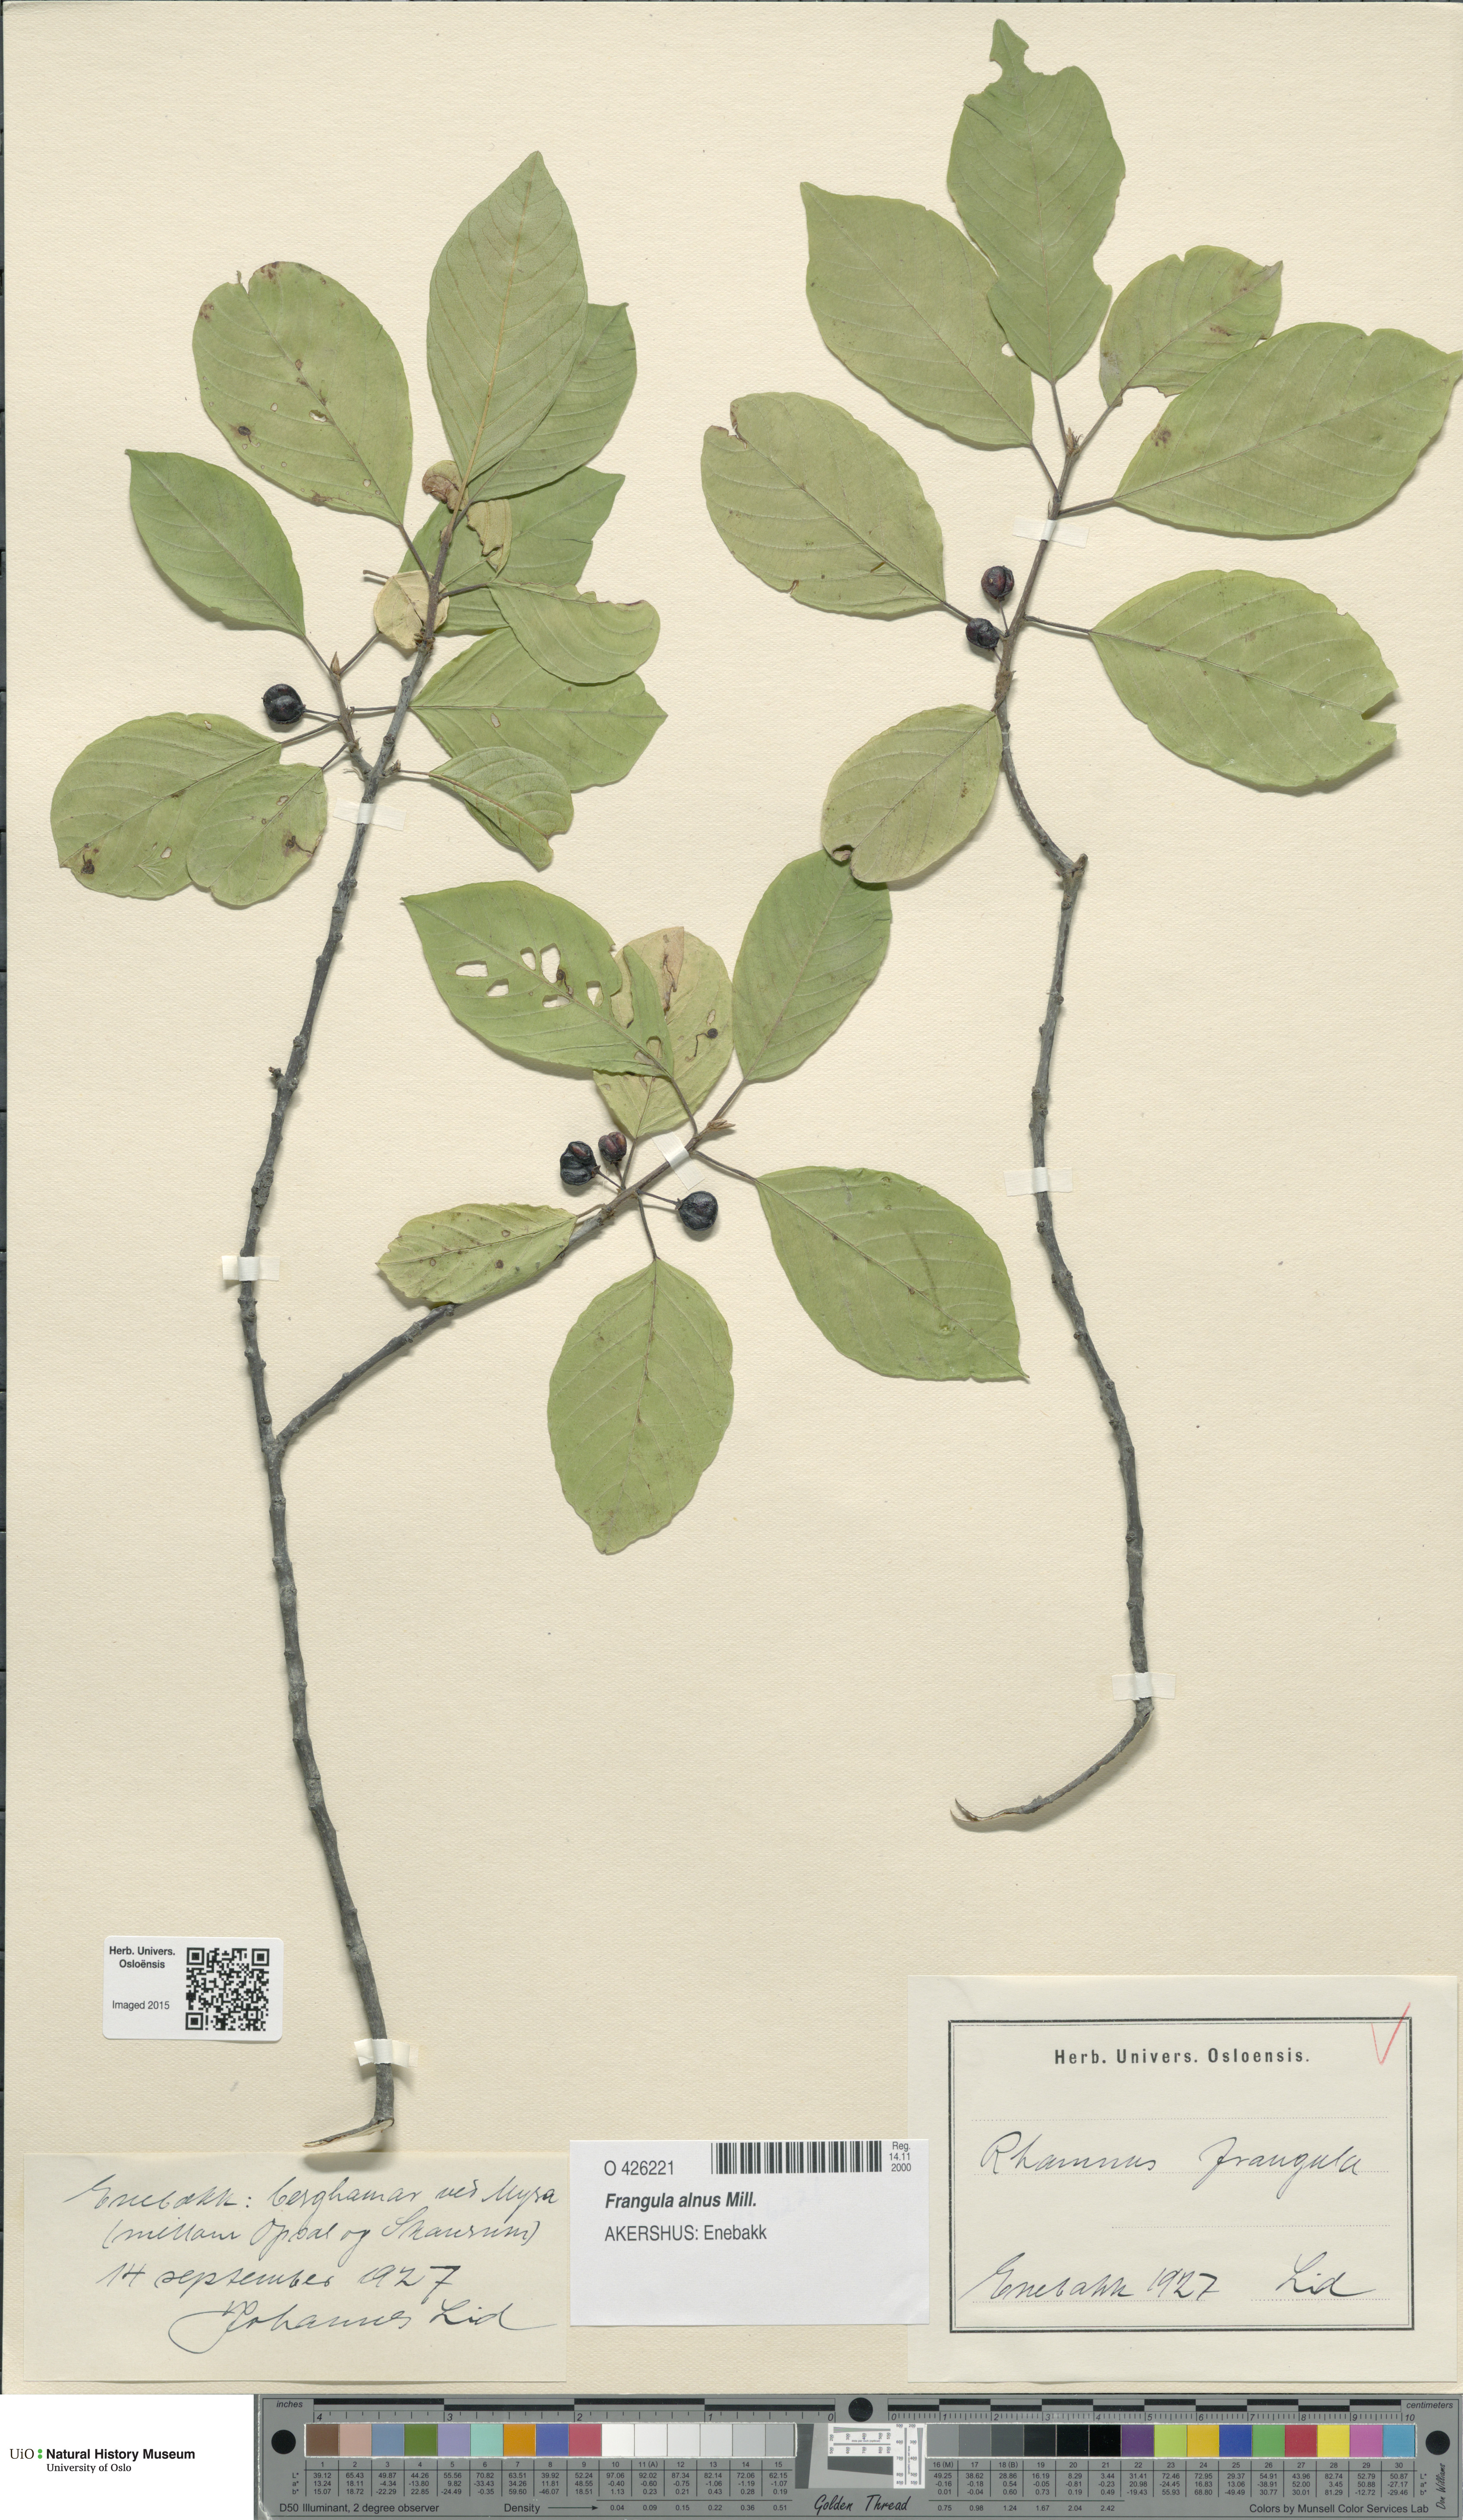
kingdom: Plantae
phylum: Tracheophyta
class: Magnoliopsida
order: Rosales
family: Rhamnaceae
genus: Frangula
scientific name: Frangula alnus
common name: Alder buckthorn
